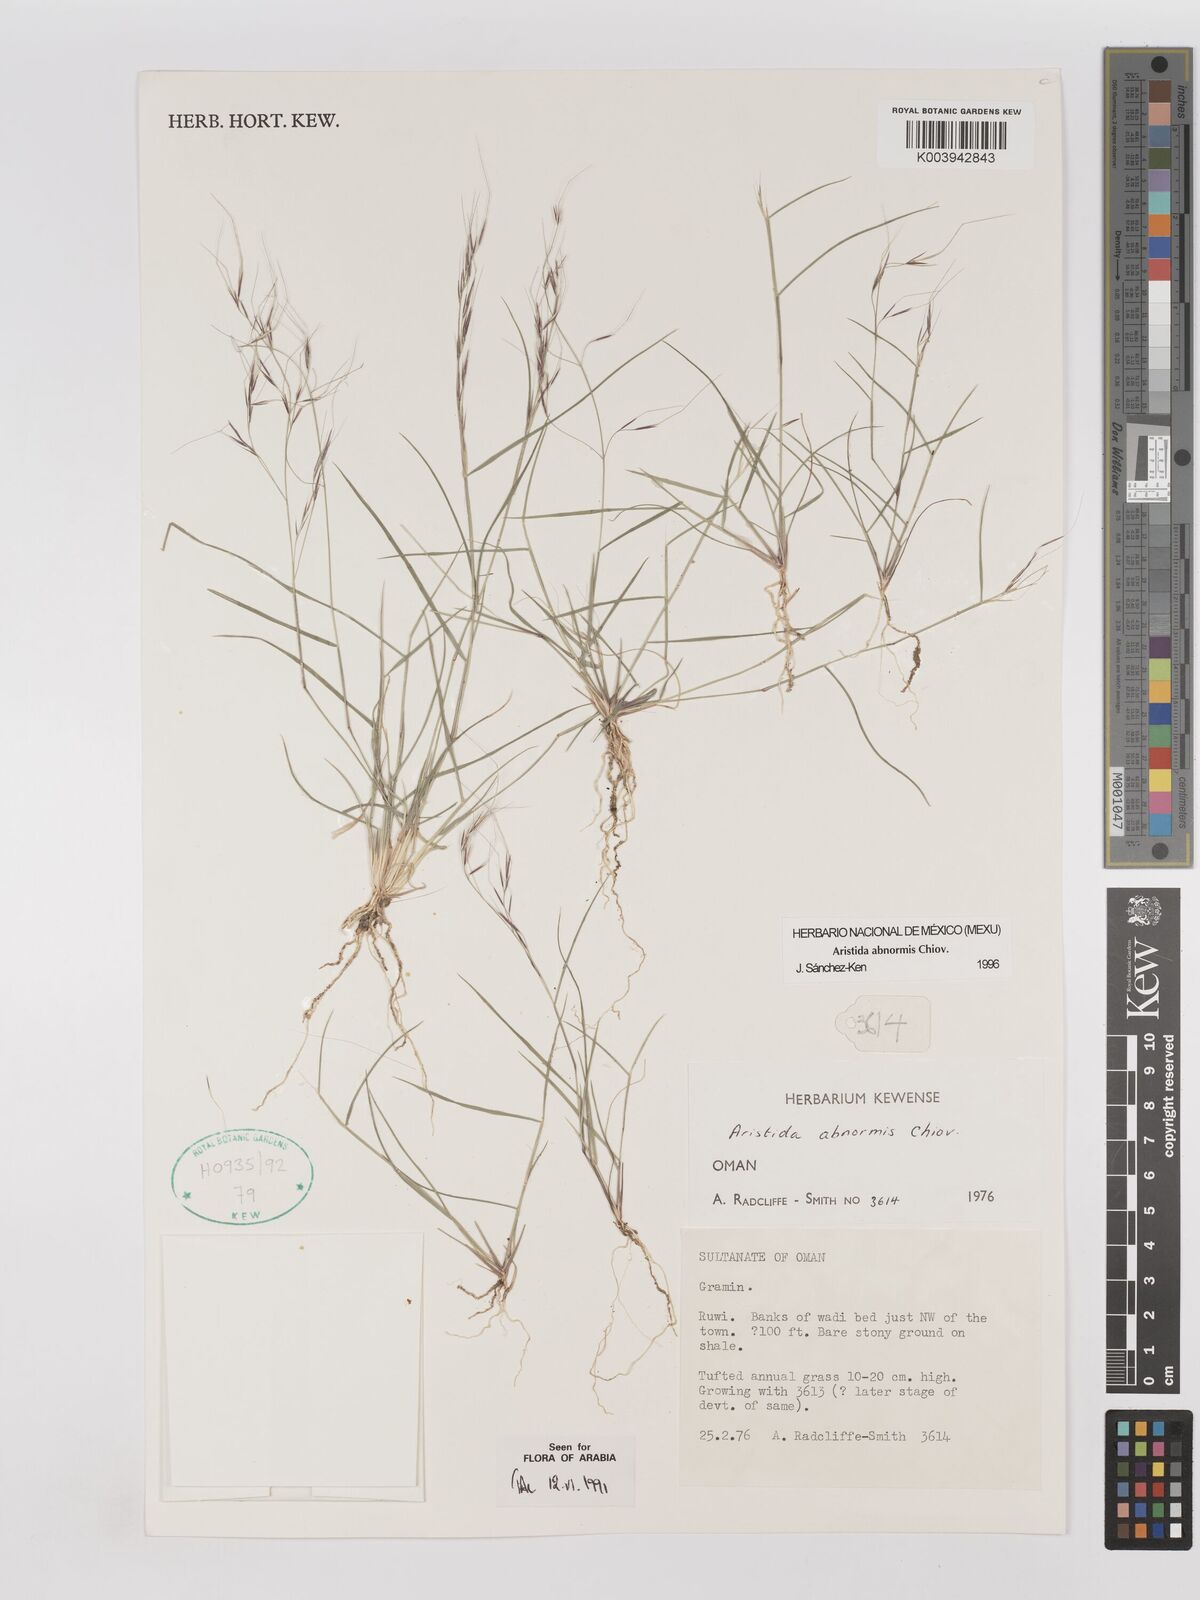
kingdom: Plantae
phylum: Tracheophyta
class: Liliopsida
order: Poales
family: Poaceae
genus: Aristida
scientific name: Aristida abnormis
